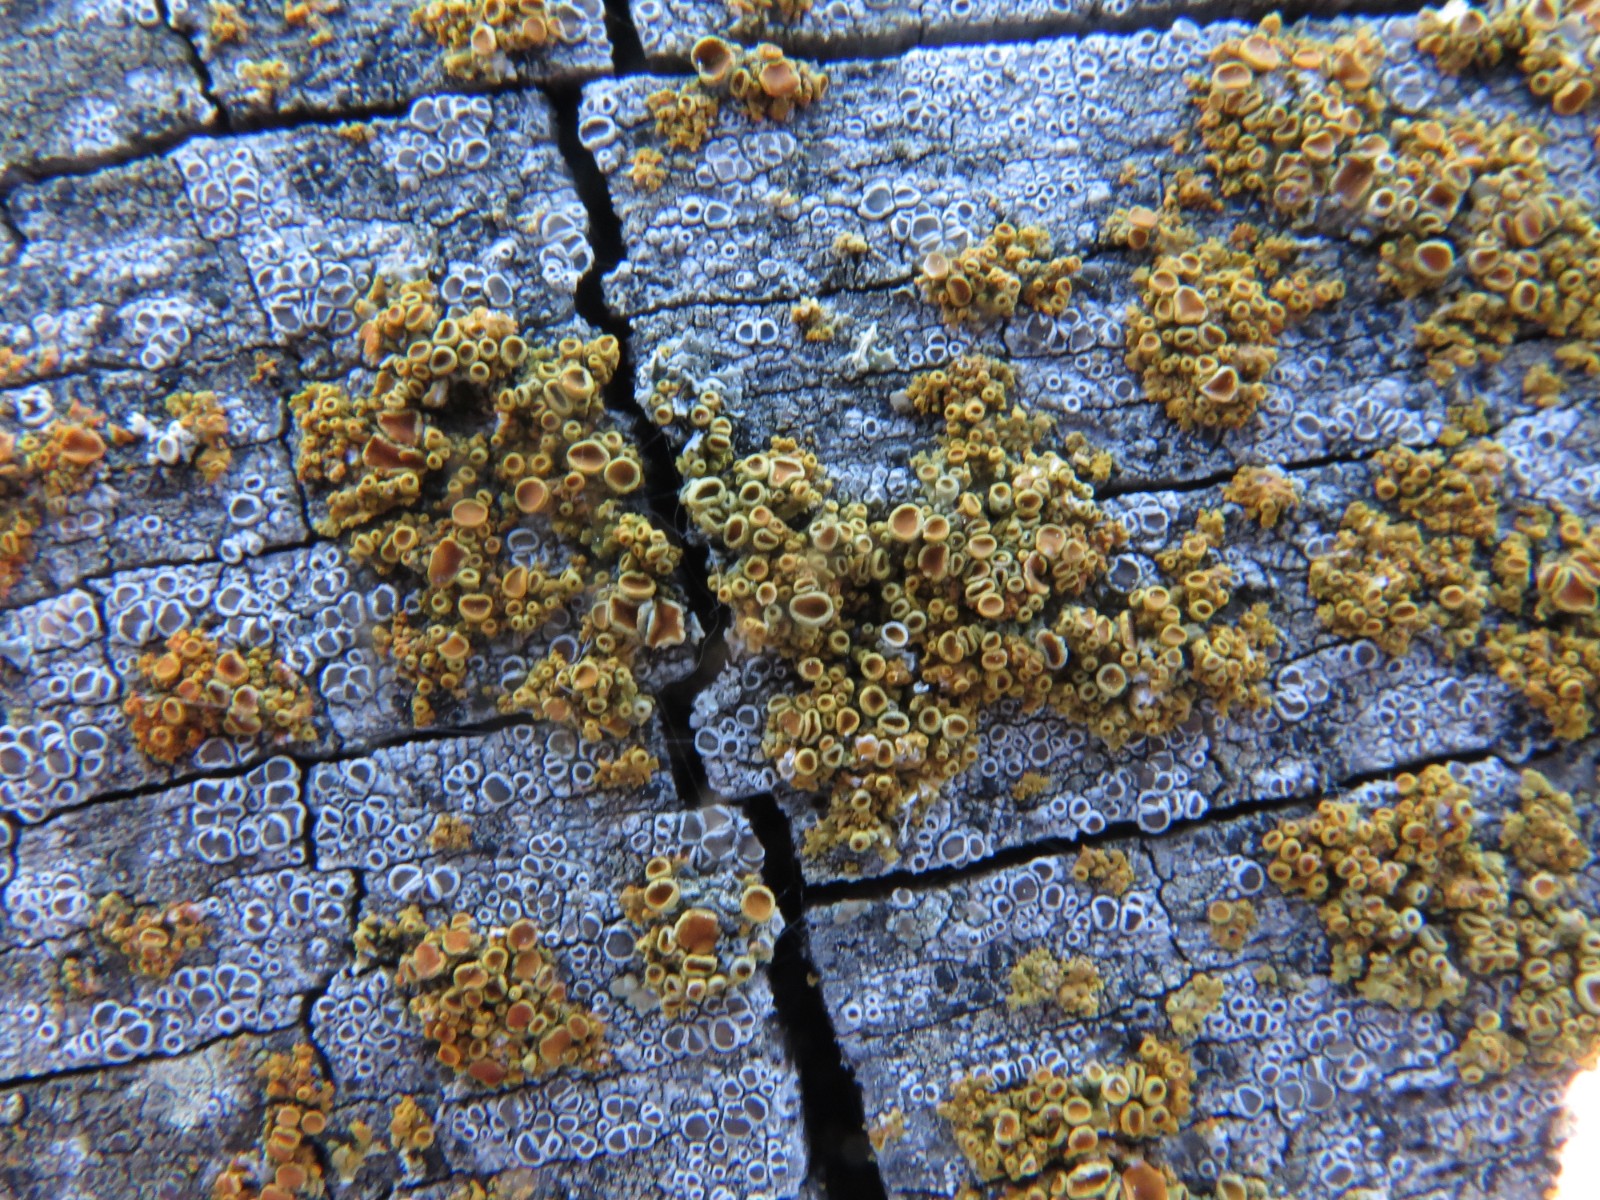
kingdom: Fungi
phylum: Ascomycota
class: Lecanoromycetes
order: Teloschistales
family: Teloschistaceae
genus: Polycauliona
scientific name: Polycauliona polycarpa
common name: mangefrugtet orangelav
